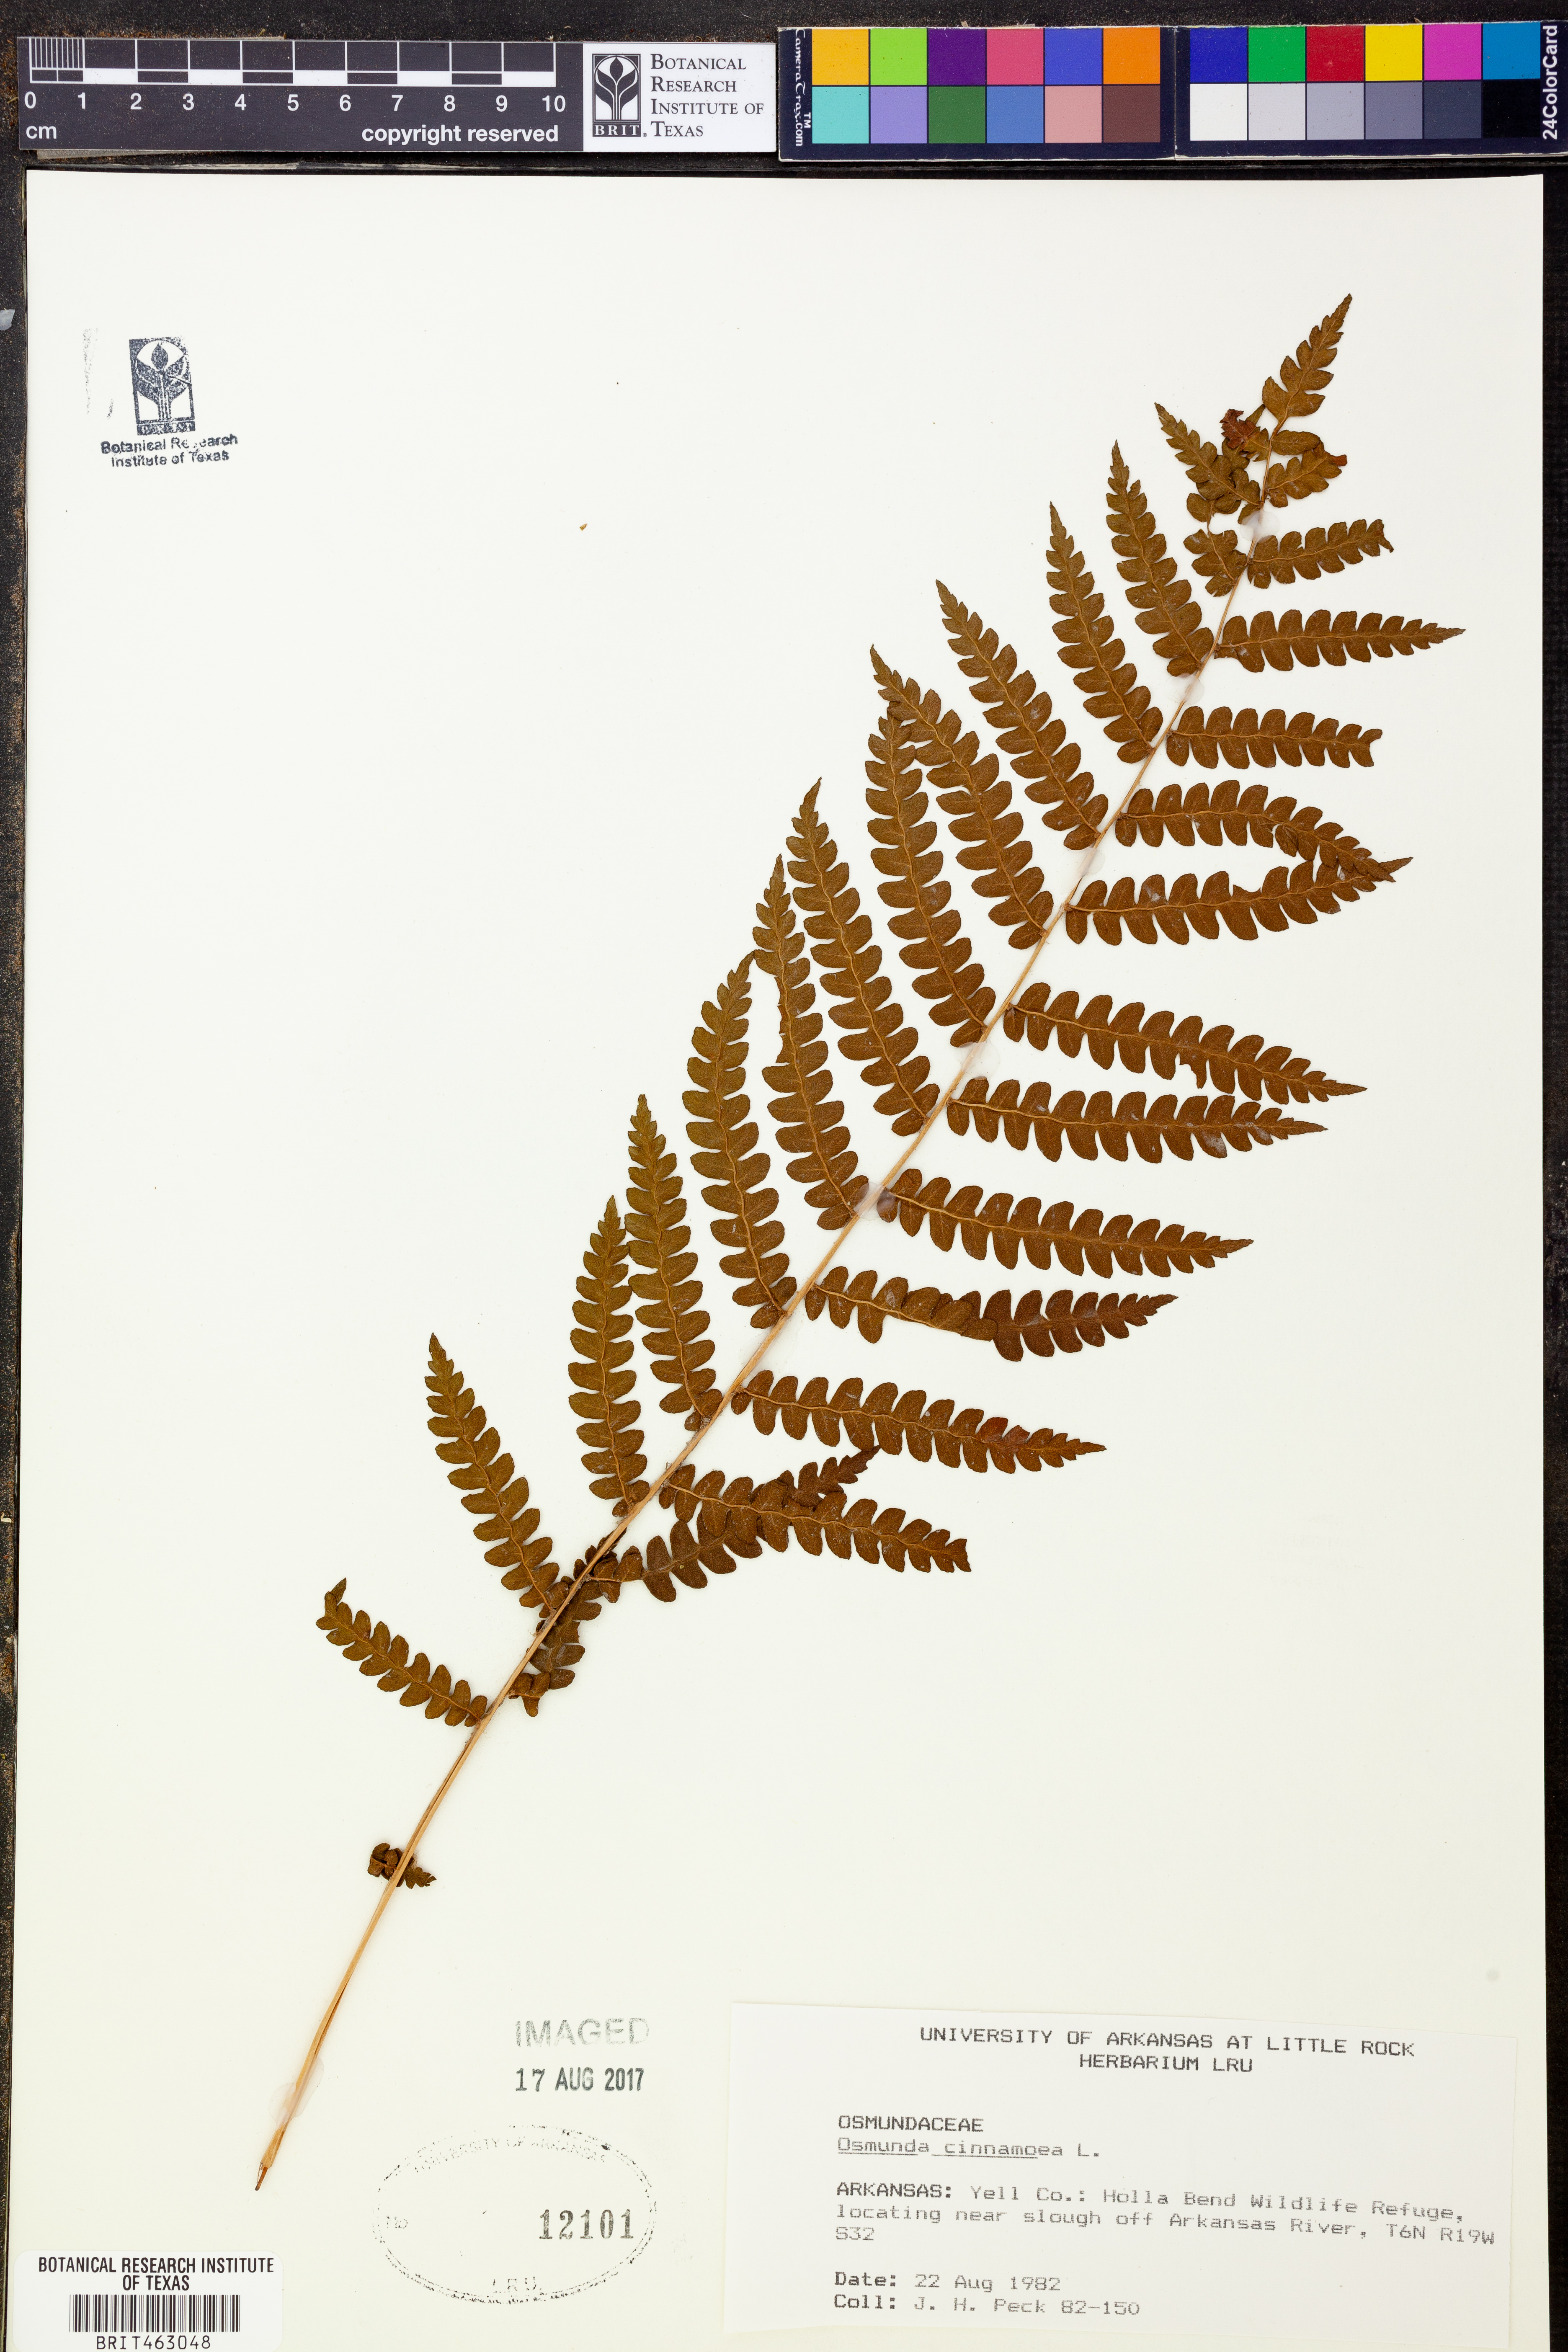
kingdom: Plantae
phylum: Tracheophyta
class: Polypodiopsida
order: Osmundales
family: Osmundaceae
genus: Osmundastrum
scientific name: Osmundastrum cinnamomeum
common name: Cinnamon fern
